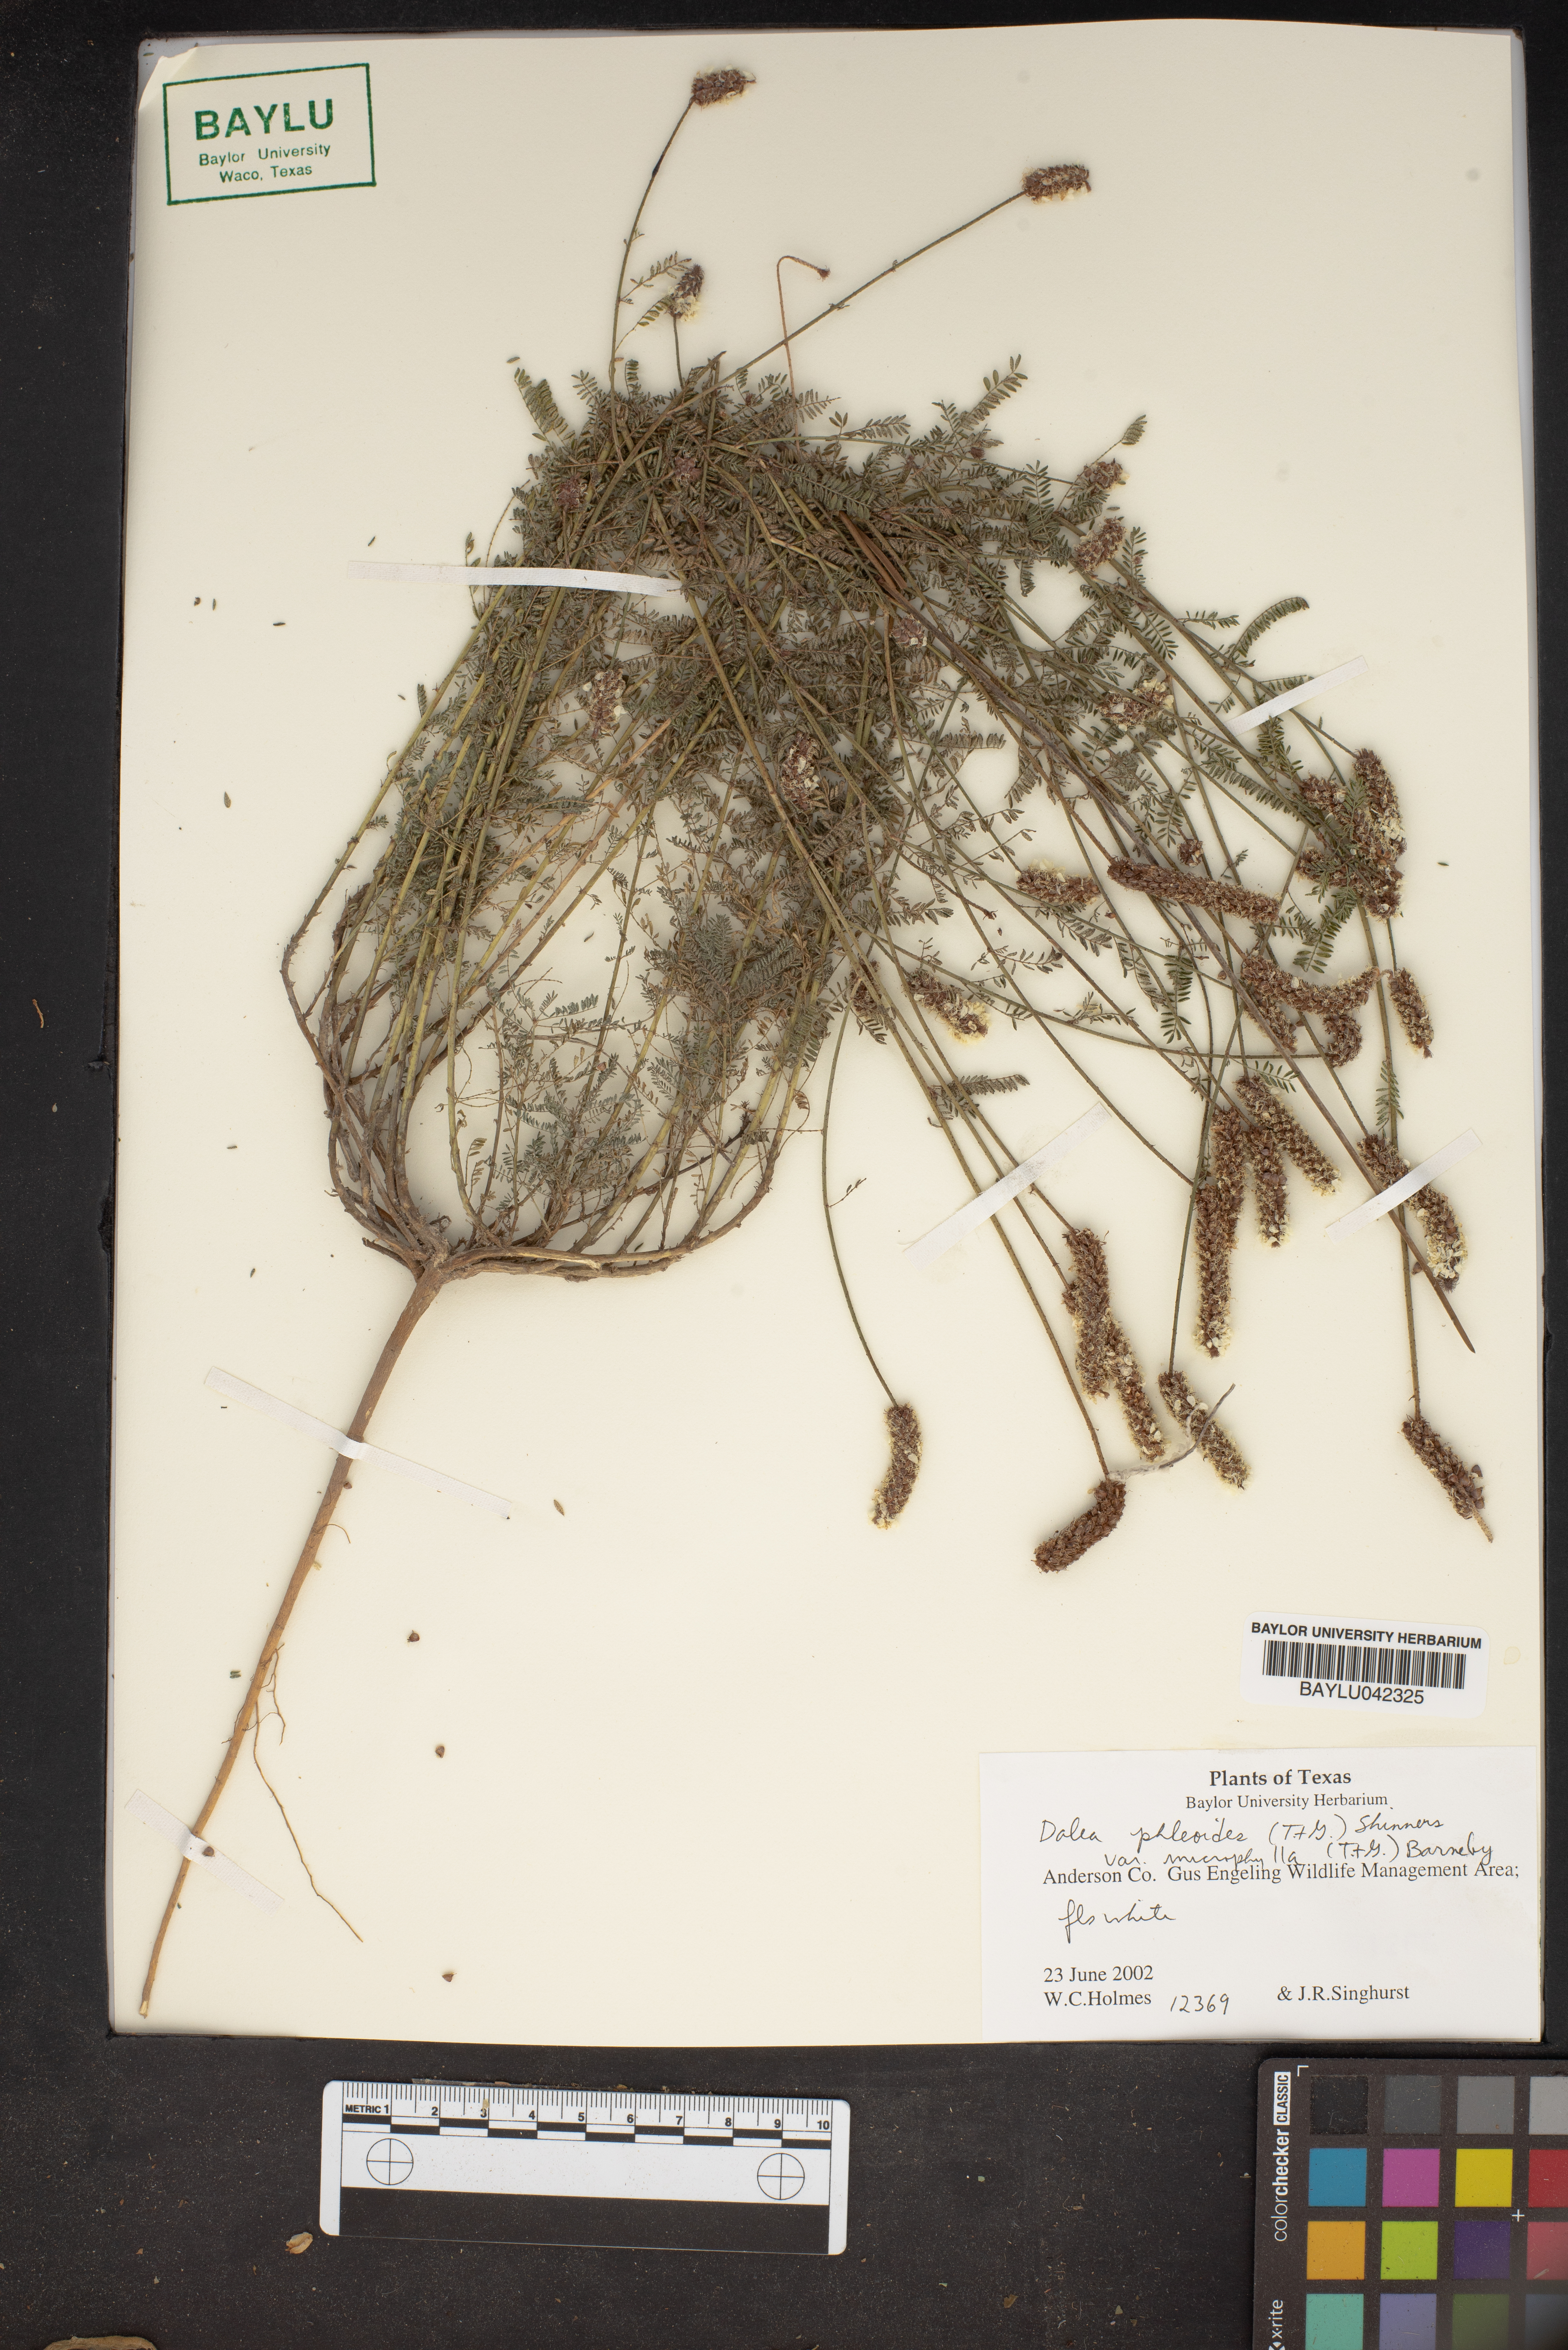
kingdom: Plantae
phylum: Tracheophyta
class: Magnoliopsida
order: Fabales
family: Fabaceae
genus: Dalea
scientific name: Dalea drummondiana
